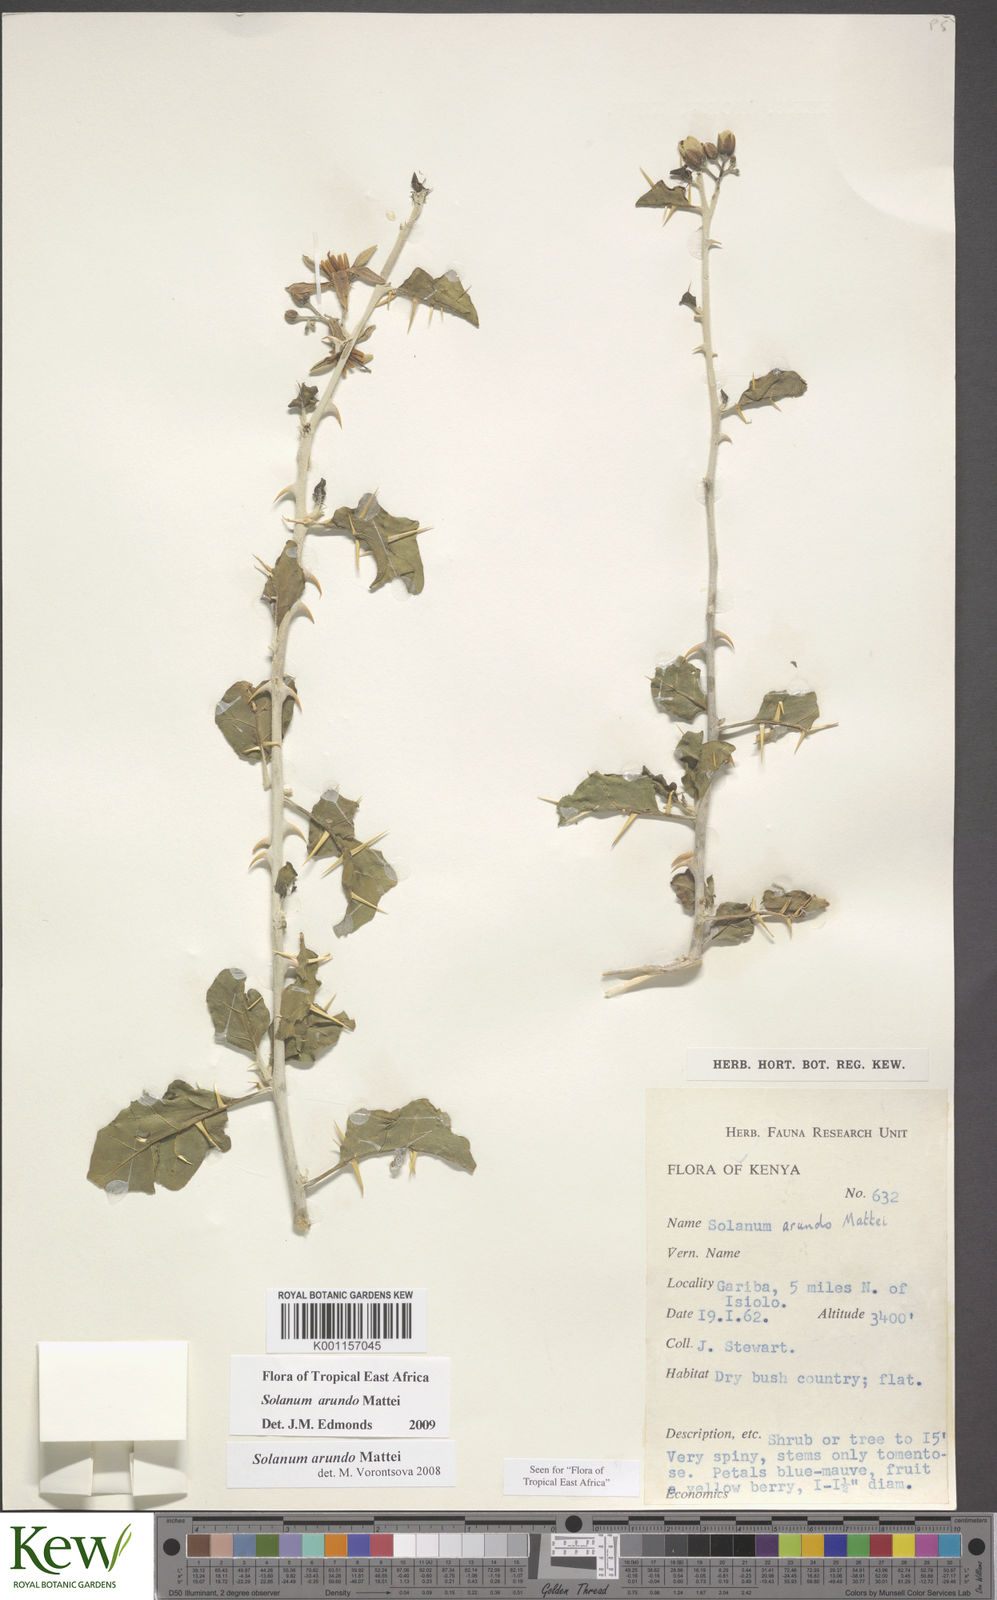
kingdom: Plantae
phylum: Tracheophyta
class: Magnoliopsida
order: Solanales
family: Solanaceae
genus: Solanum
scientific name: Solanum arundo
